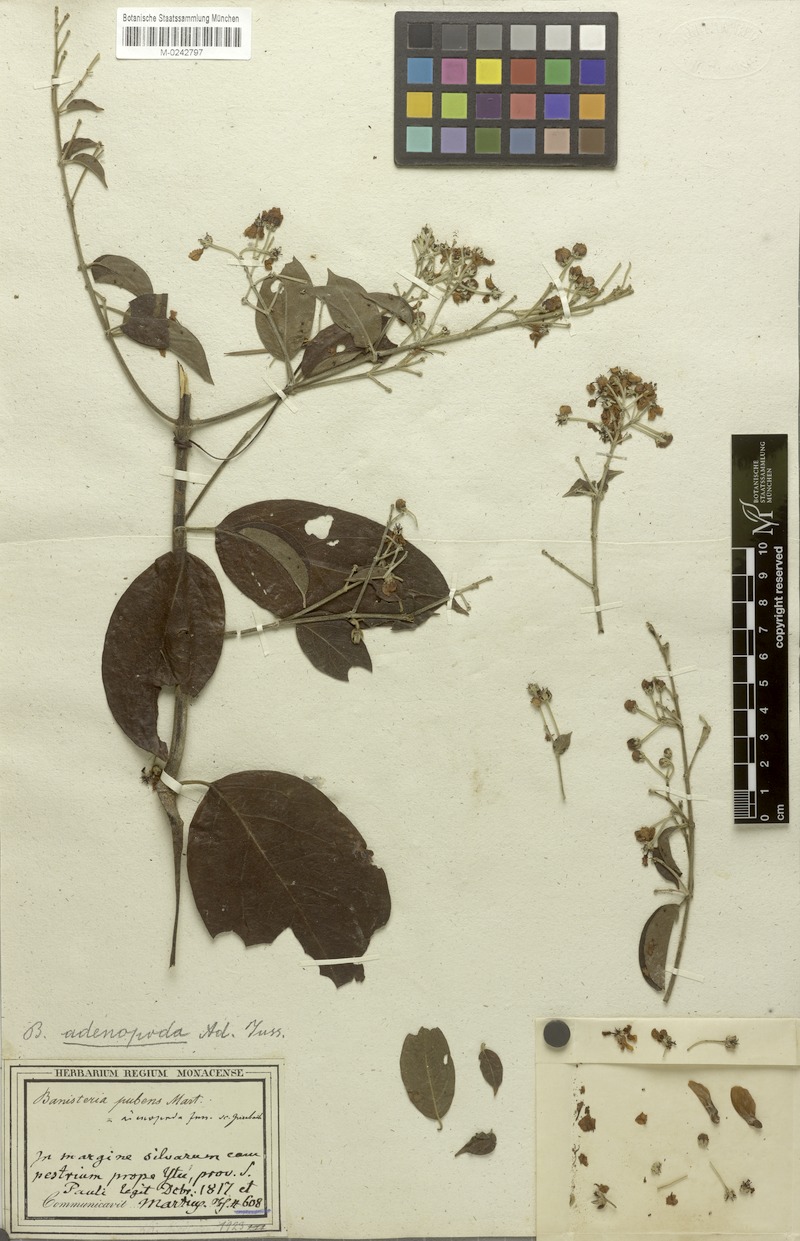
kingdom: Plantae
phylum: Tracheophyta
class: Magnoliopsida
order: Malpighiales
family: Malpighiaceae
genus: Banisteriopsis
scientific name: Banisteriopsis adenopoda
